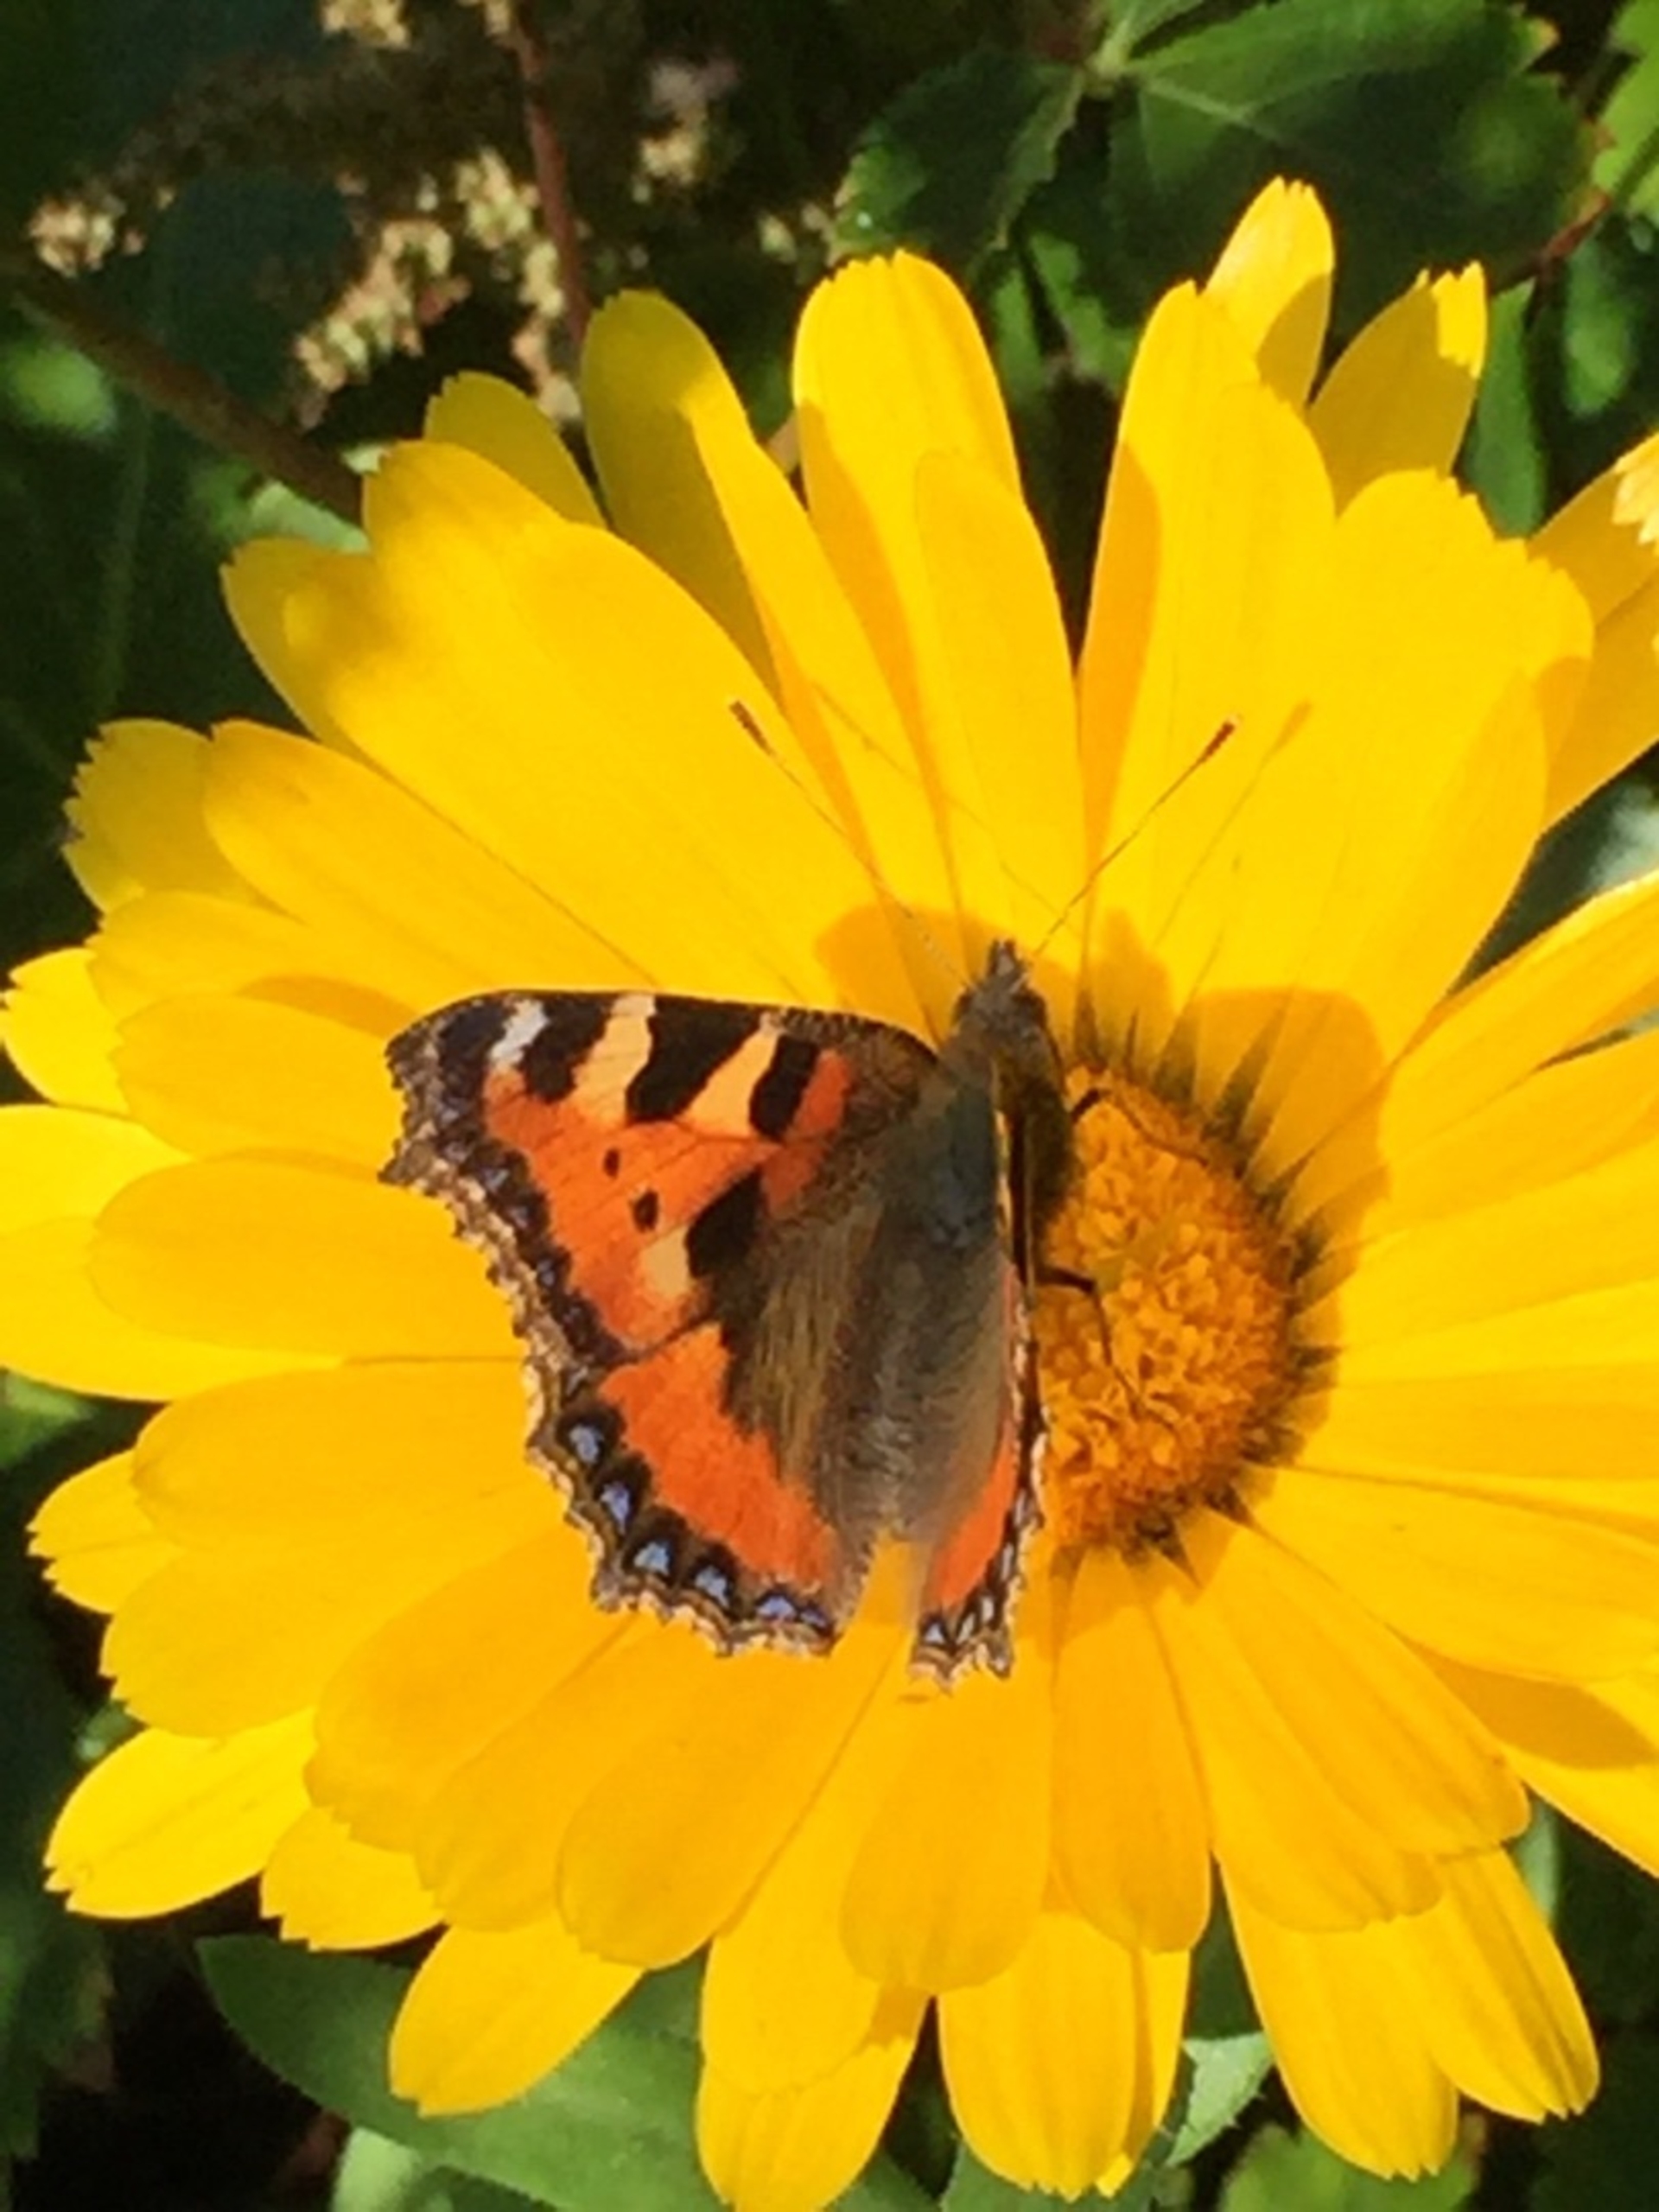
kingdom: Animalia
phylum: Arthropoda
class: Insecta
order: Lepidoptera
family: Nymphalidae
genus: Aglais
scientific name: Aglais urticae
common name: Nældens takvinge
